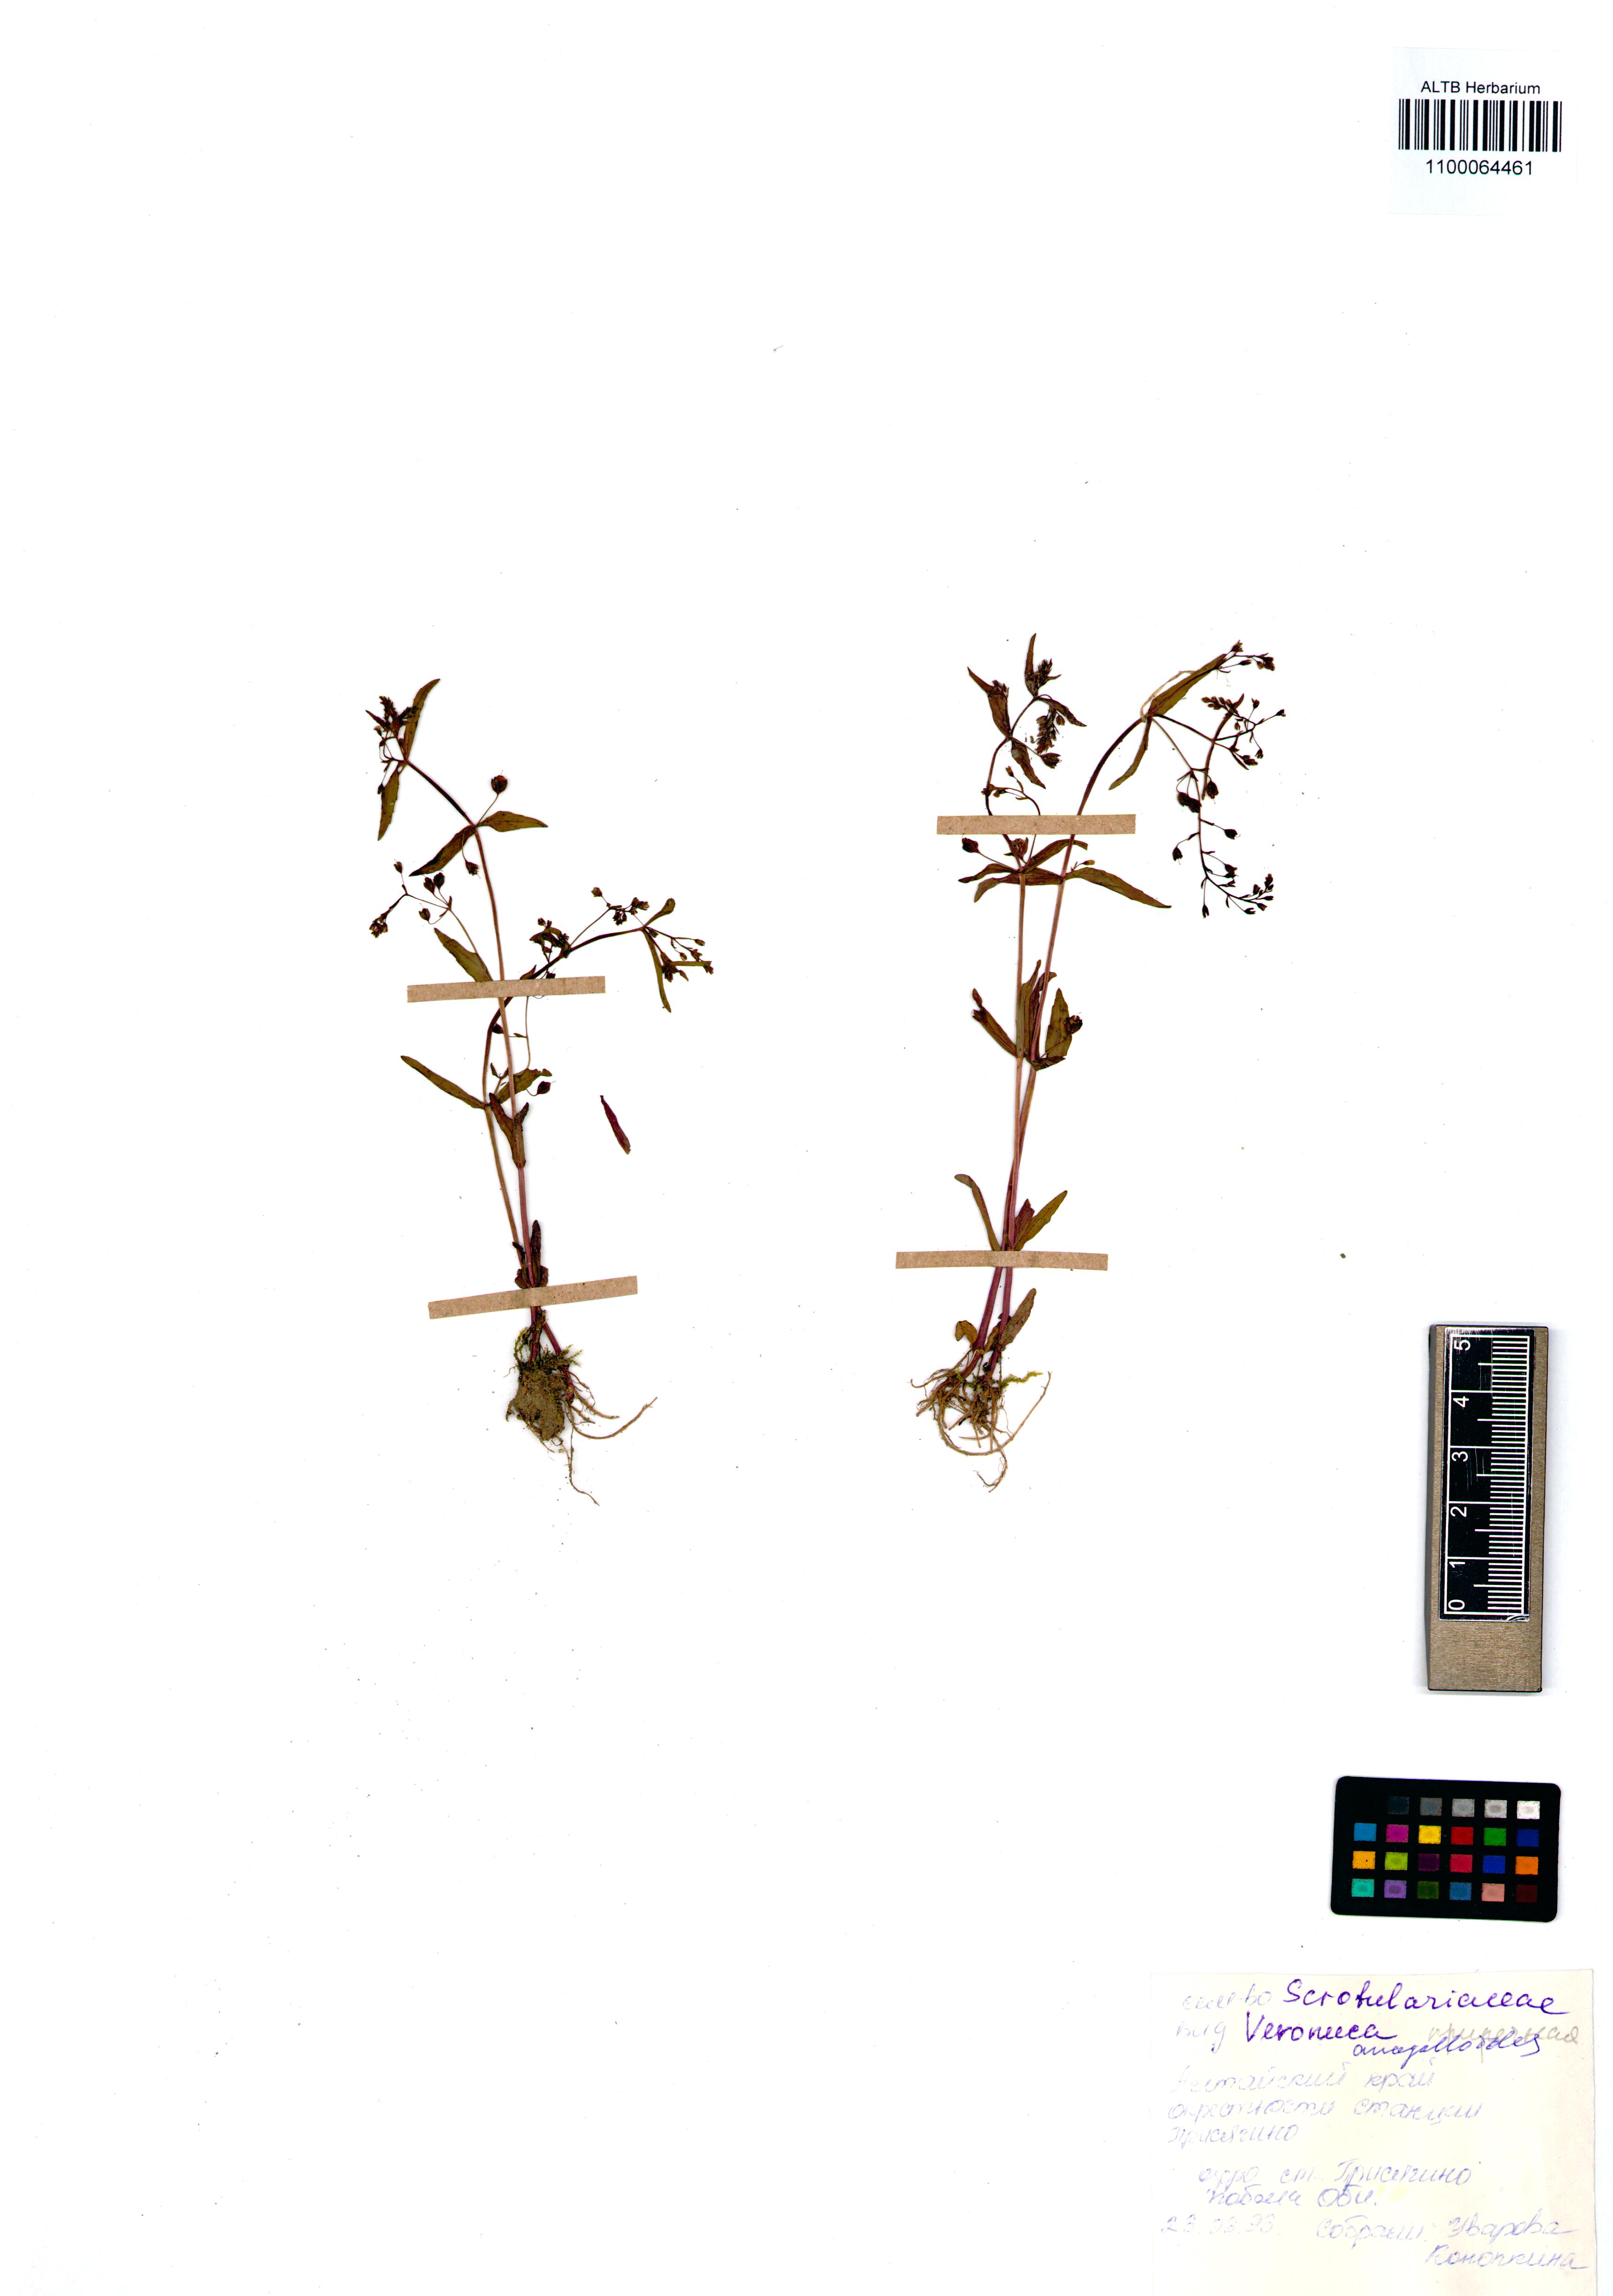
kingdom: Plantae
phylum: Tracheophyta
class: Magnoliopsida
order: Lamiales
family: Plantaginaceae
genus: Veronica
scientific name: Veronica anagalloides
